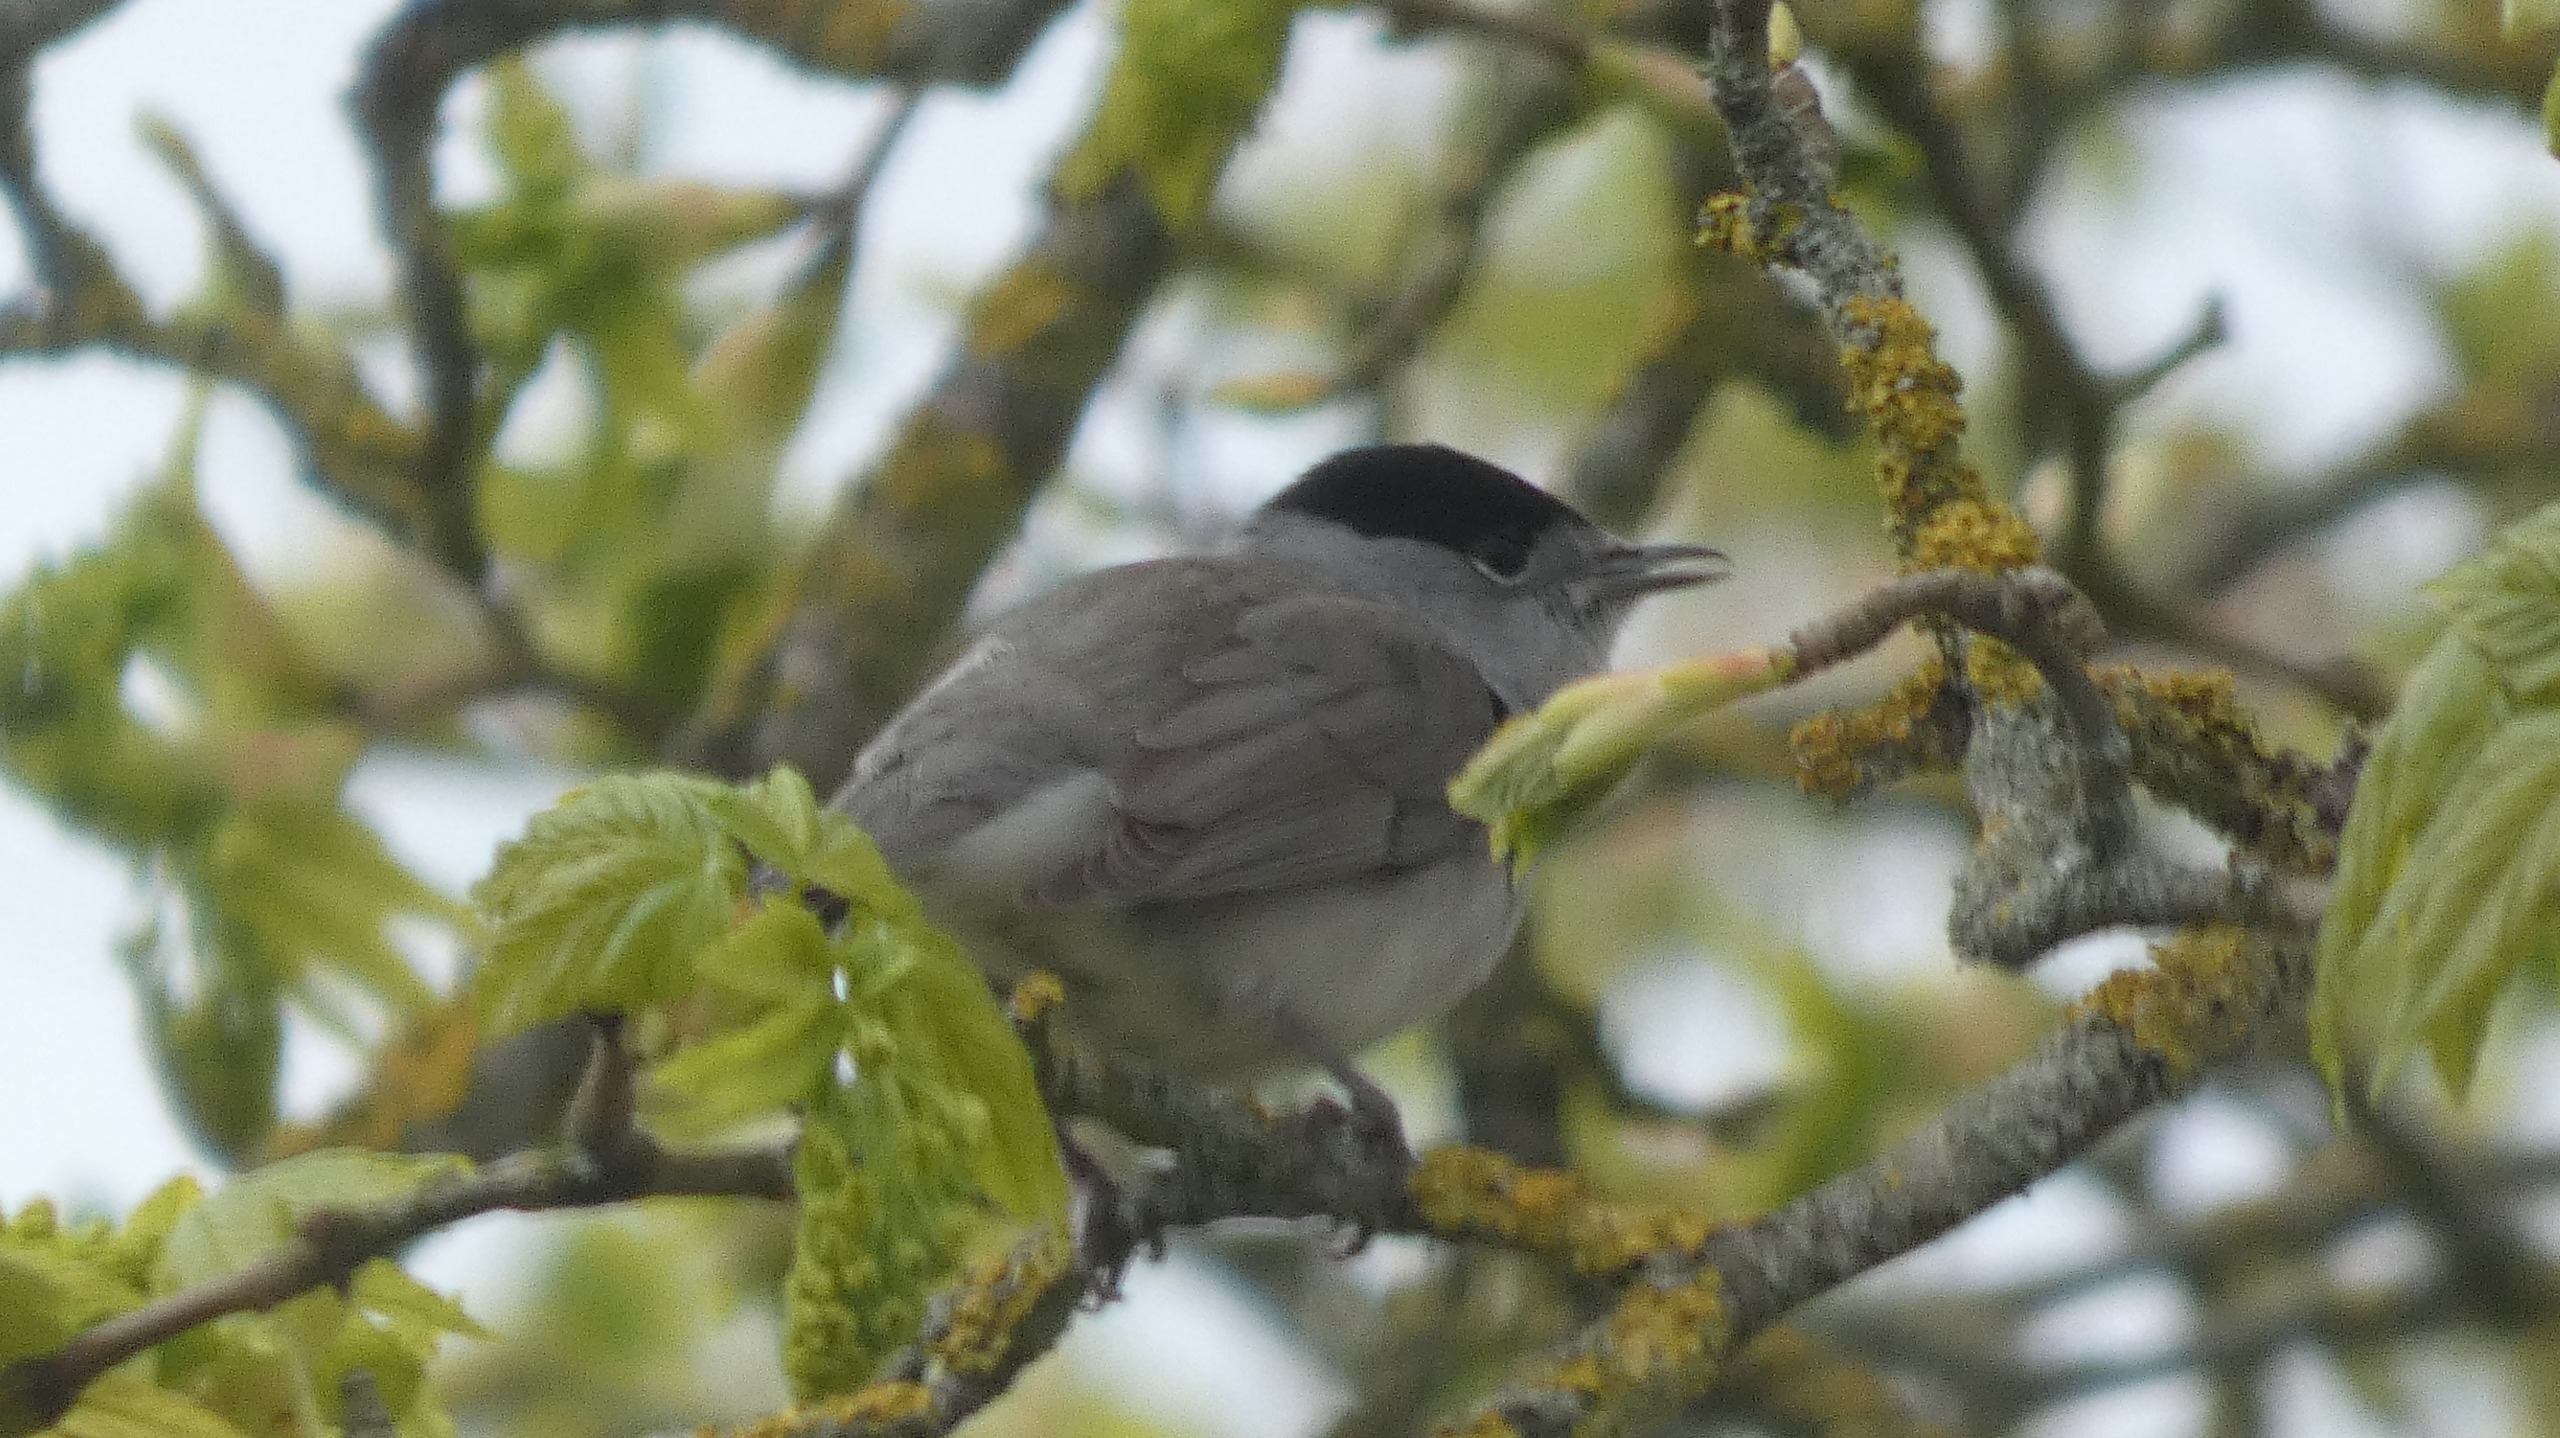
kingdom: Animalia
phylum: Chordata
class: Aves
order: Passeriformes
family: Sylviidae
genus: Sylvia
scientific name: Sylvia atricapilla
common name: Munk
